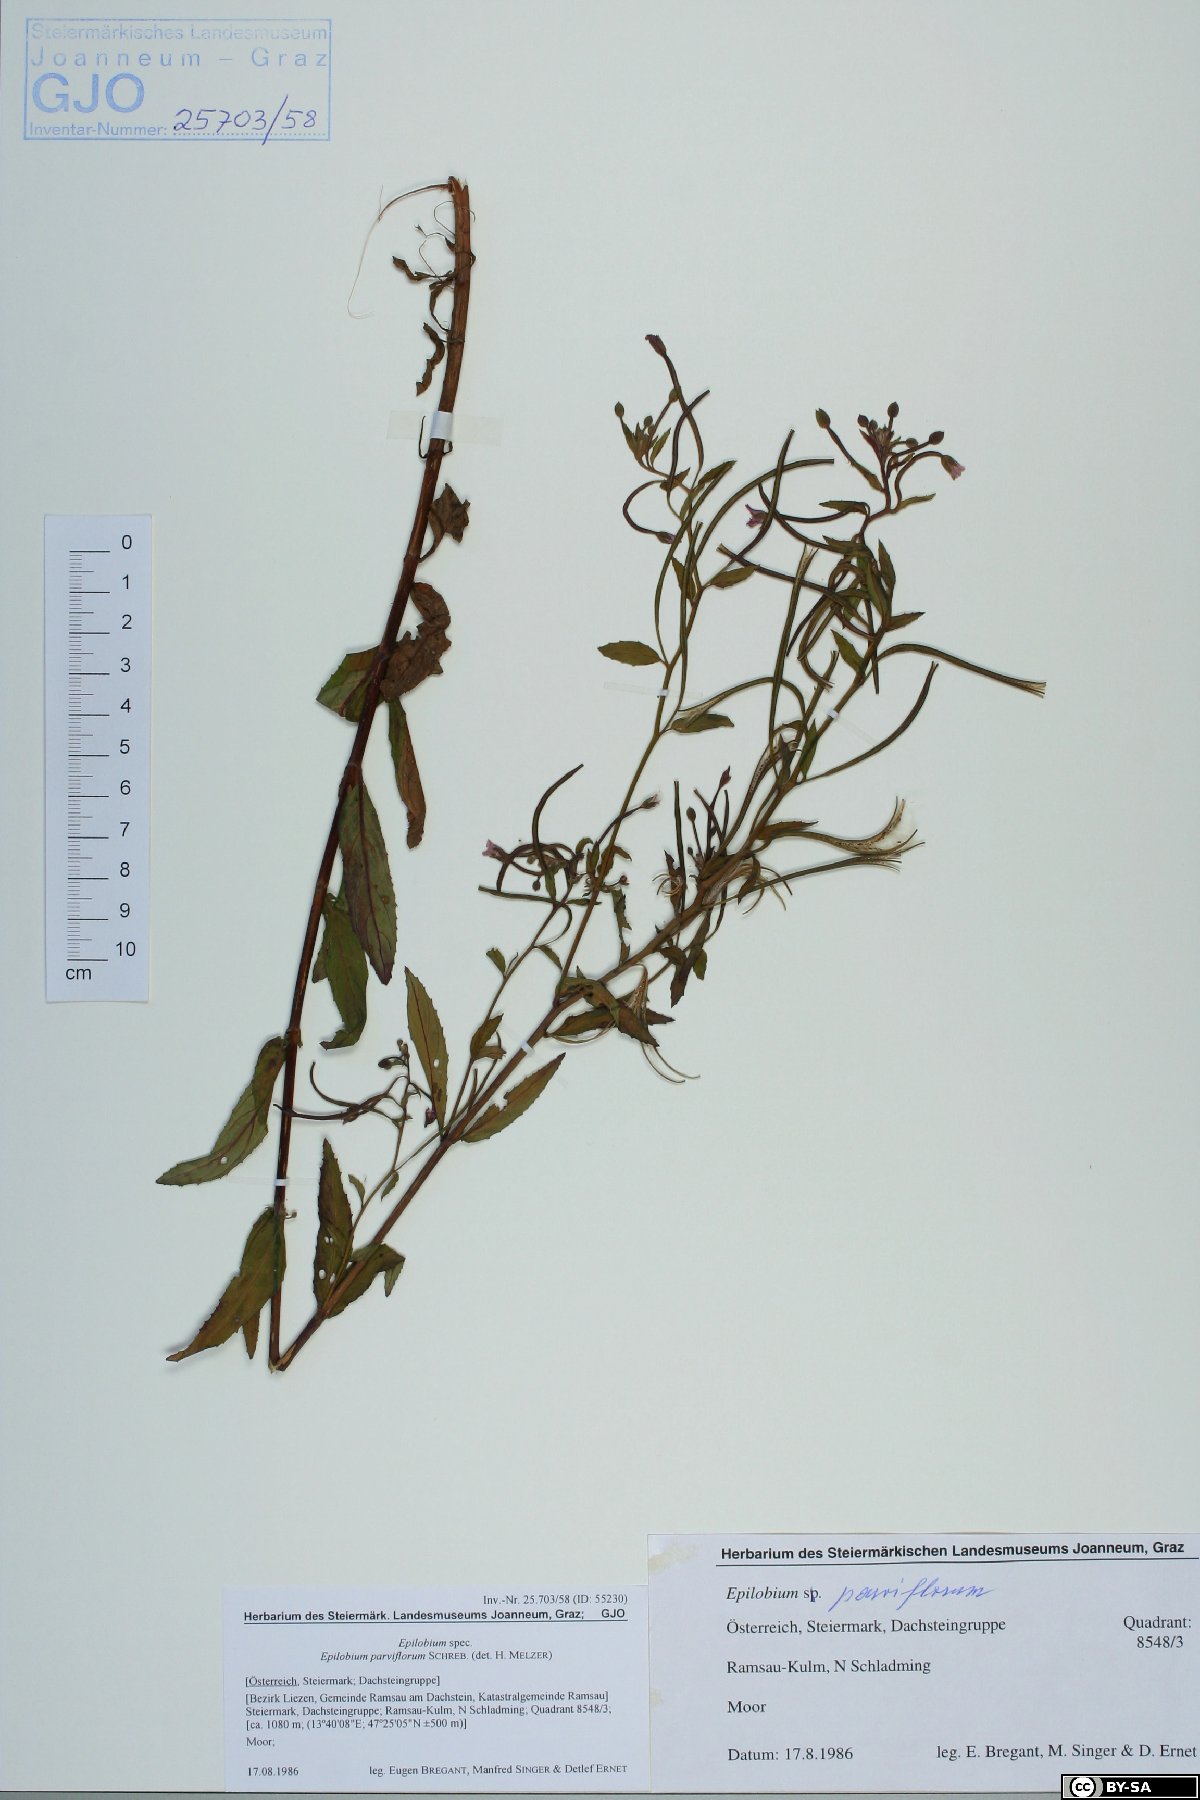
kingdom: Plantae
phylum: Tracheophyta
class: Magnoliopsida
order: Myrtales
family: Onagraceae
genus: Epilobium
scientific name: Epilobium parviflorum
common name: Hoary willowherb
